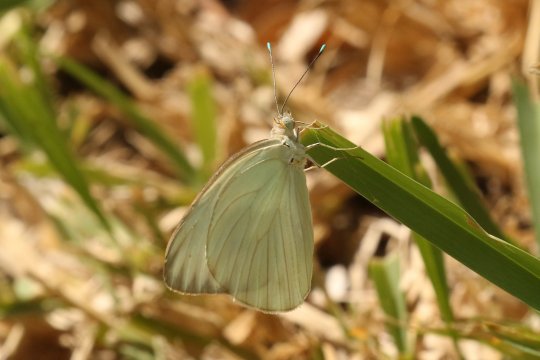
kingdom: Animalia
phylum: Arthropoda
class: Insecta
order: Lepidoptera
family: Pieridae
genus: Ascia
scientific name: Ascia monuste
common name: Great Southern White
